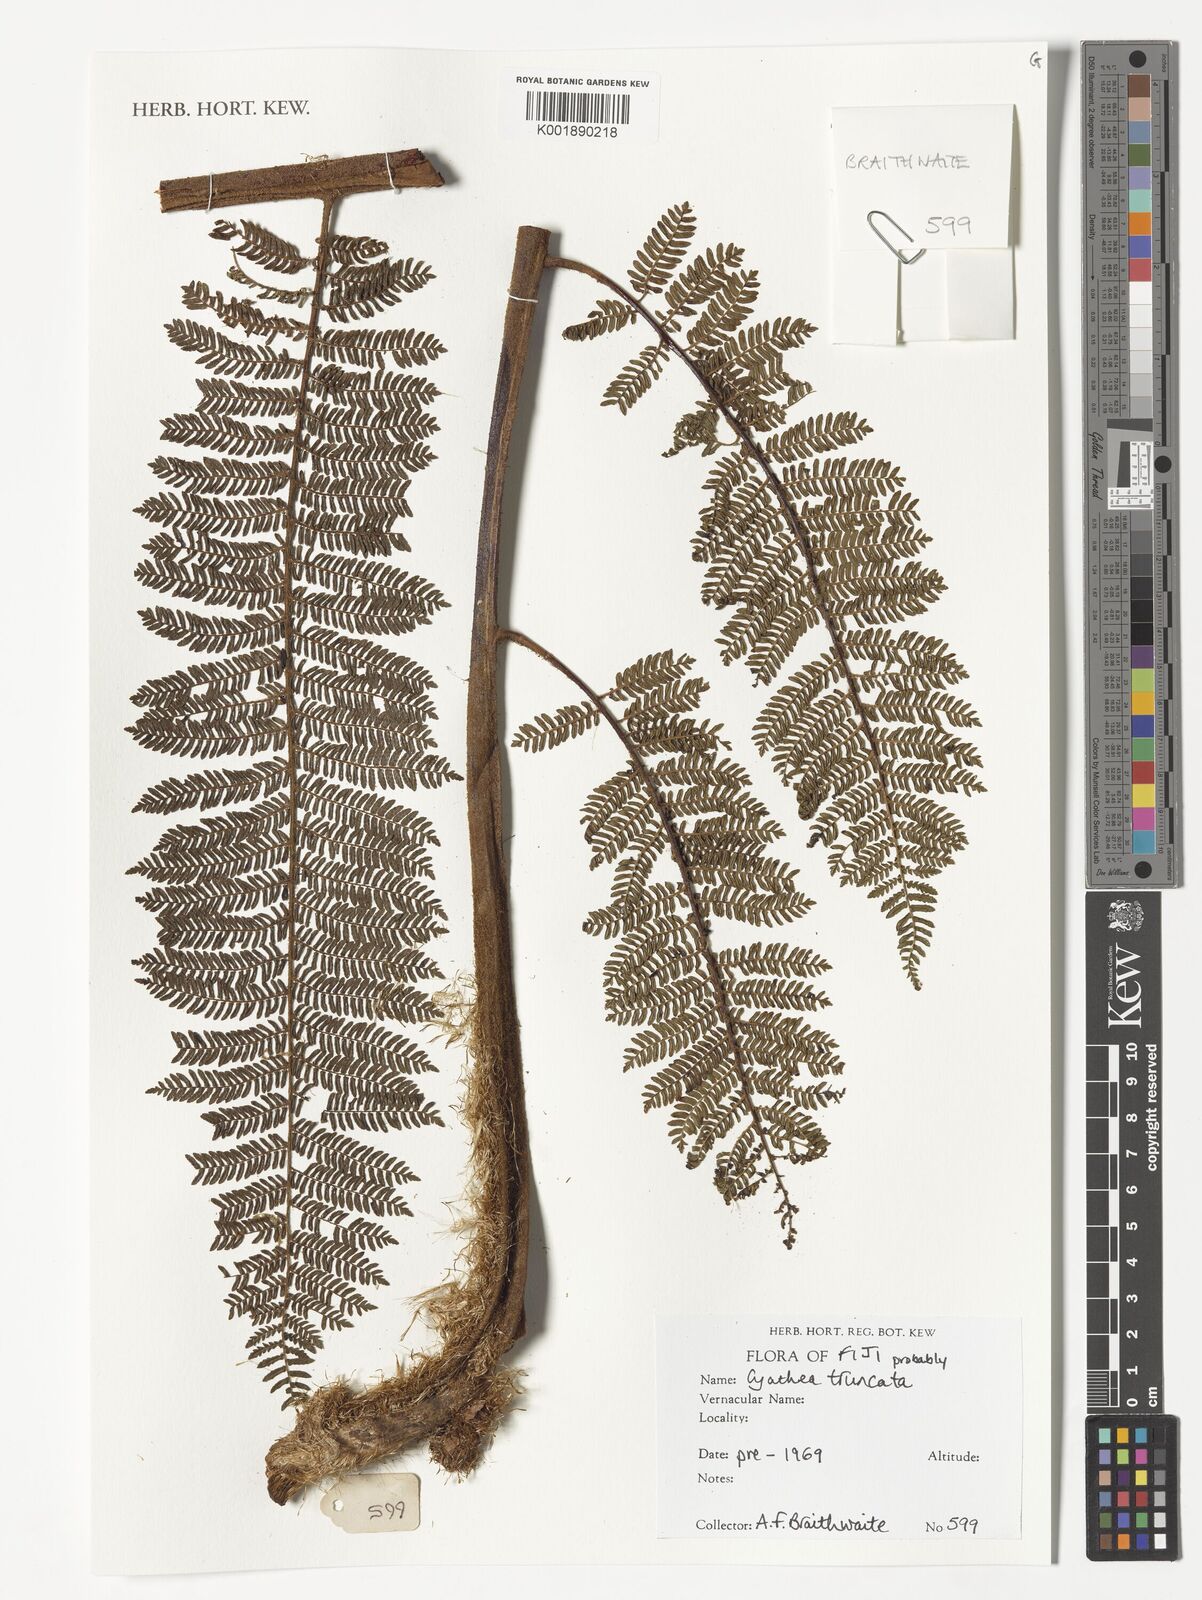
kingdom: Plantae
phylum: Tracheophyta
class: Polypodiopsida
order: Cyatheales
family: Cyatheaceae
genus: Sphaeropteris
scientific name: Sphaeropteris truncata
